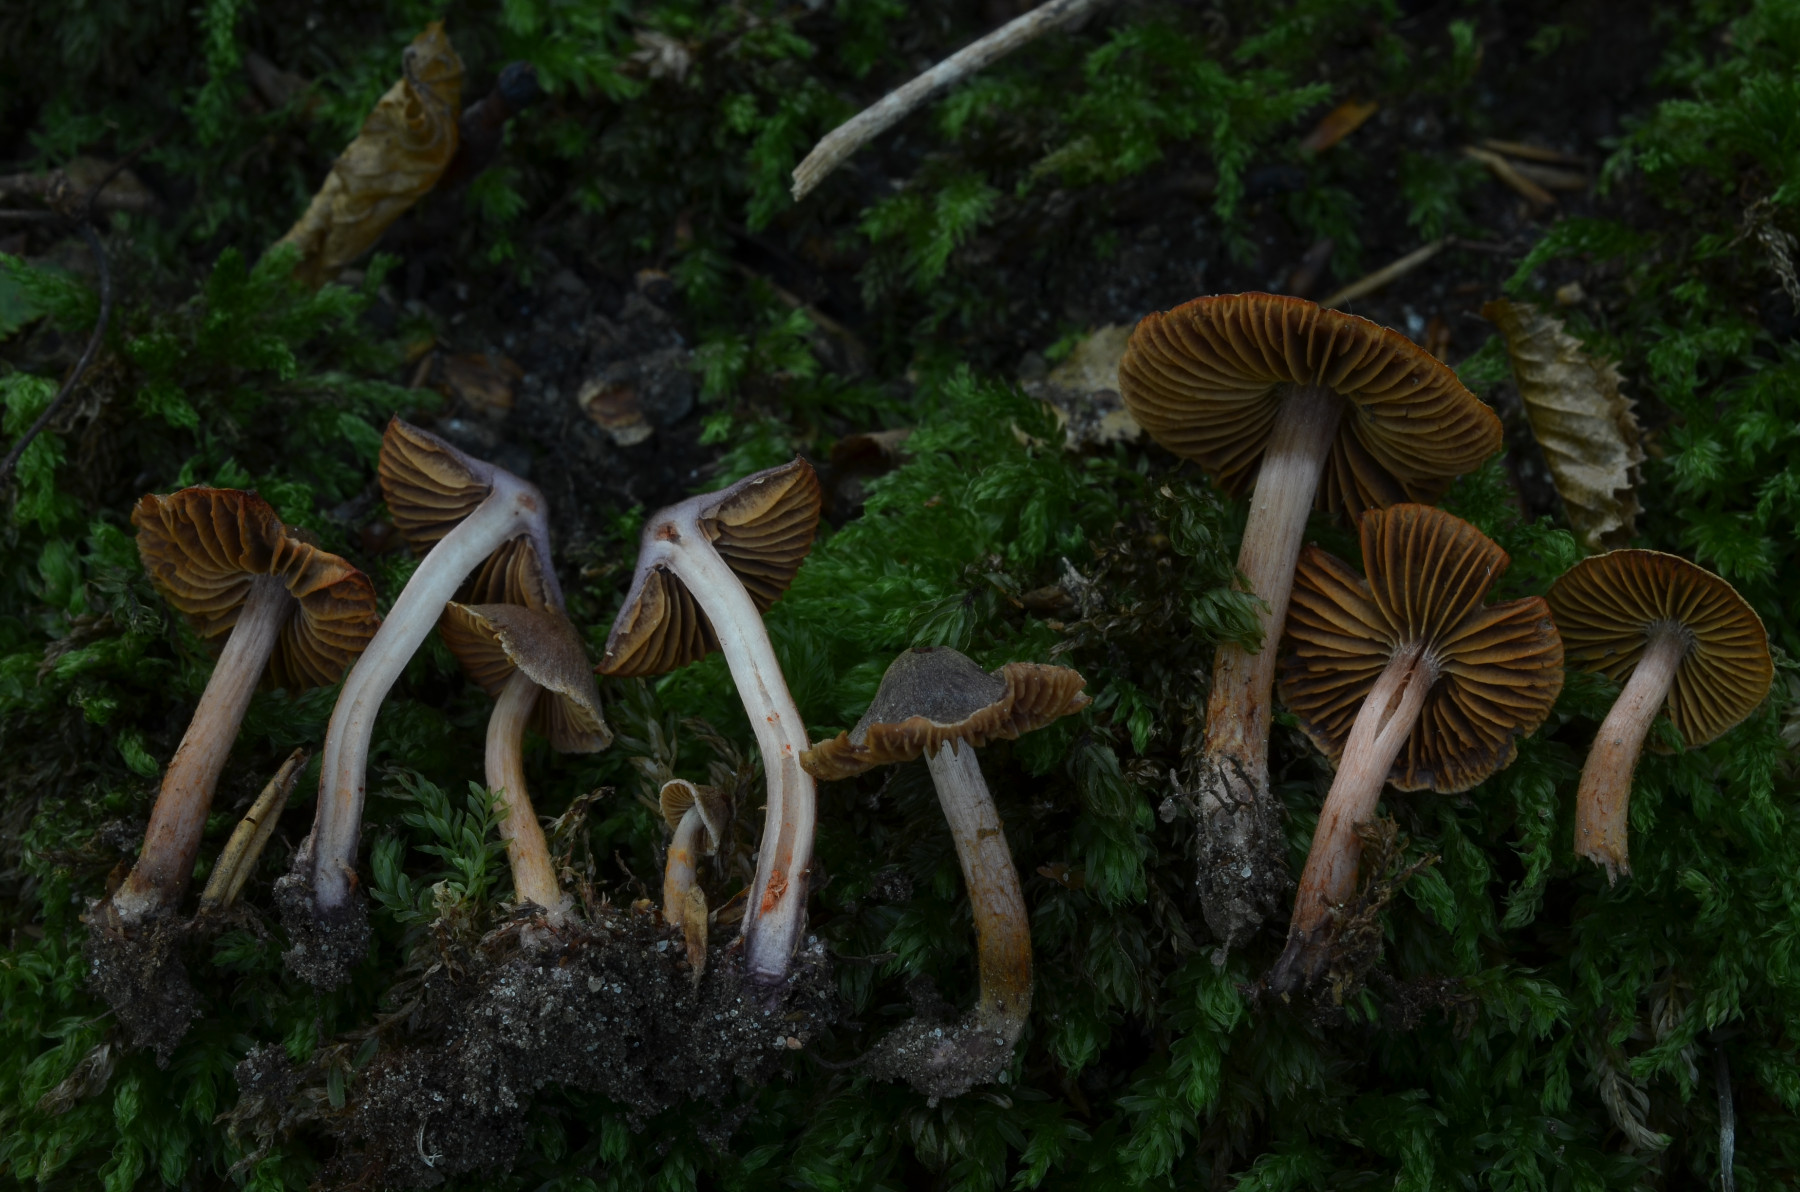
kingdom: Fungi
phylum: Basidiomycota
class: Agaricomycetes
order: Agaricales
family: Cortinariaceae
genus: Cortinarius
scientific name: Cortinarius anthracinus
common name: purpursort slørhat
